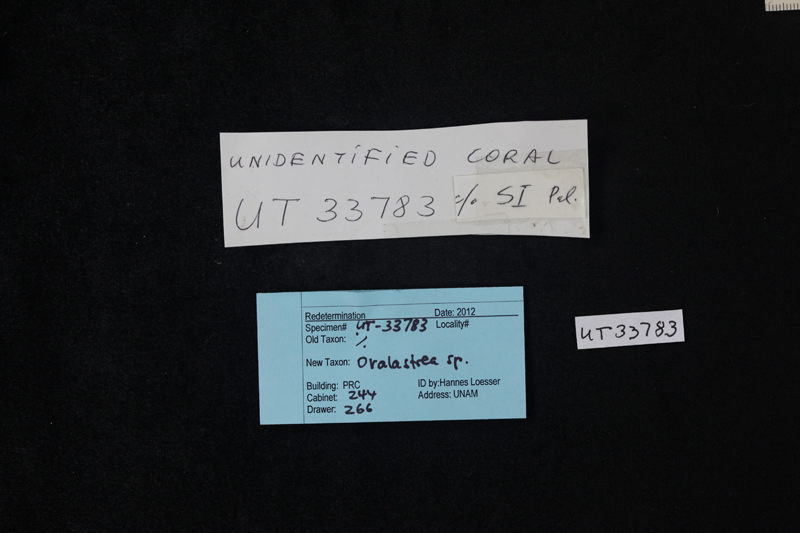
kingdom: Animalia
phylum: Cnidaria
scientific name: Cnidaria
